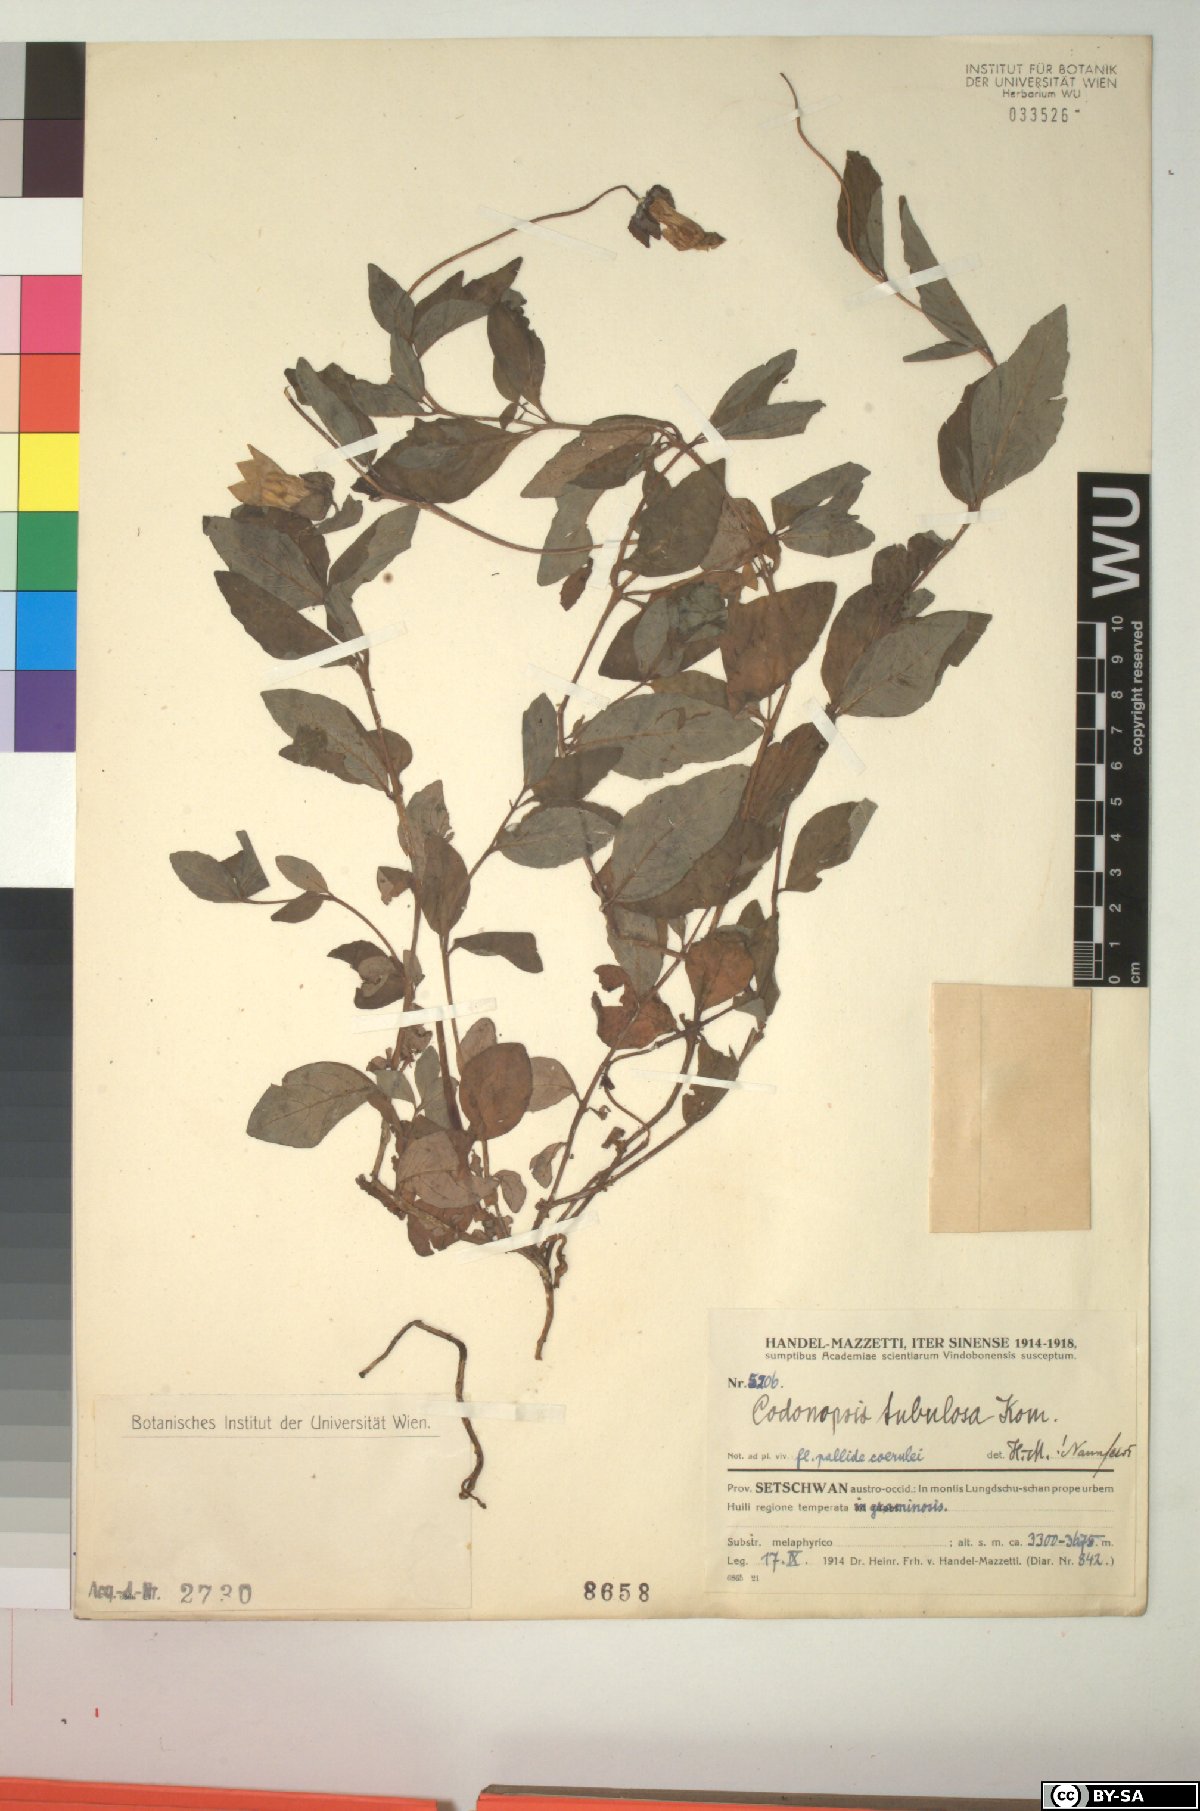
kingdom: Plantae
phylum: Tracheophyta
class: Magnoliopsida
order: Asterales
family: Campanulaceae
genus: Codonopsis
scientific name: Codonopsis tubulosa
